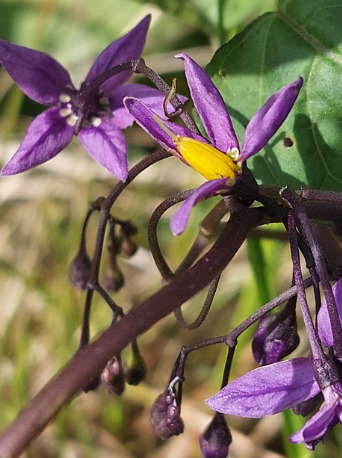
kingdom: Plantae
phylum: Tracheophyta
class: Magnoliopsida
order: Solanales
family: Solanaceae
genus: Solanum
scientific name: Solanum dulcamara
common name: Bittersød natskygge
